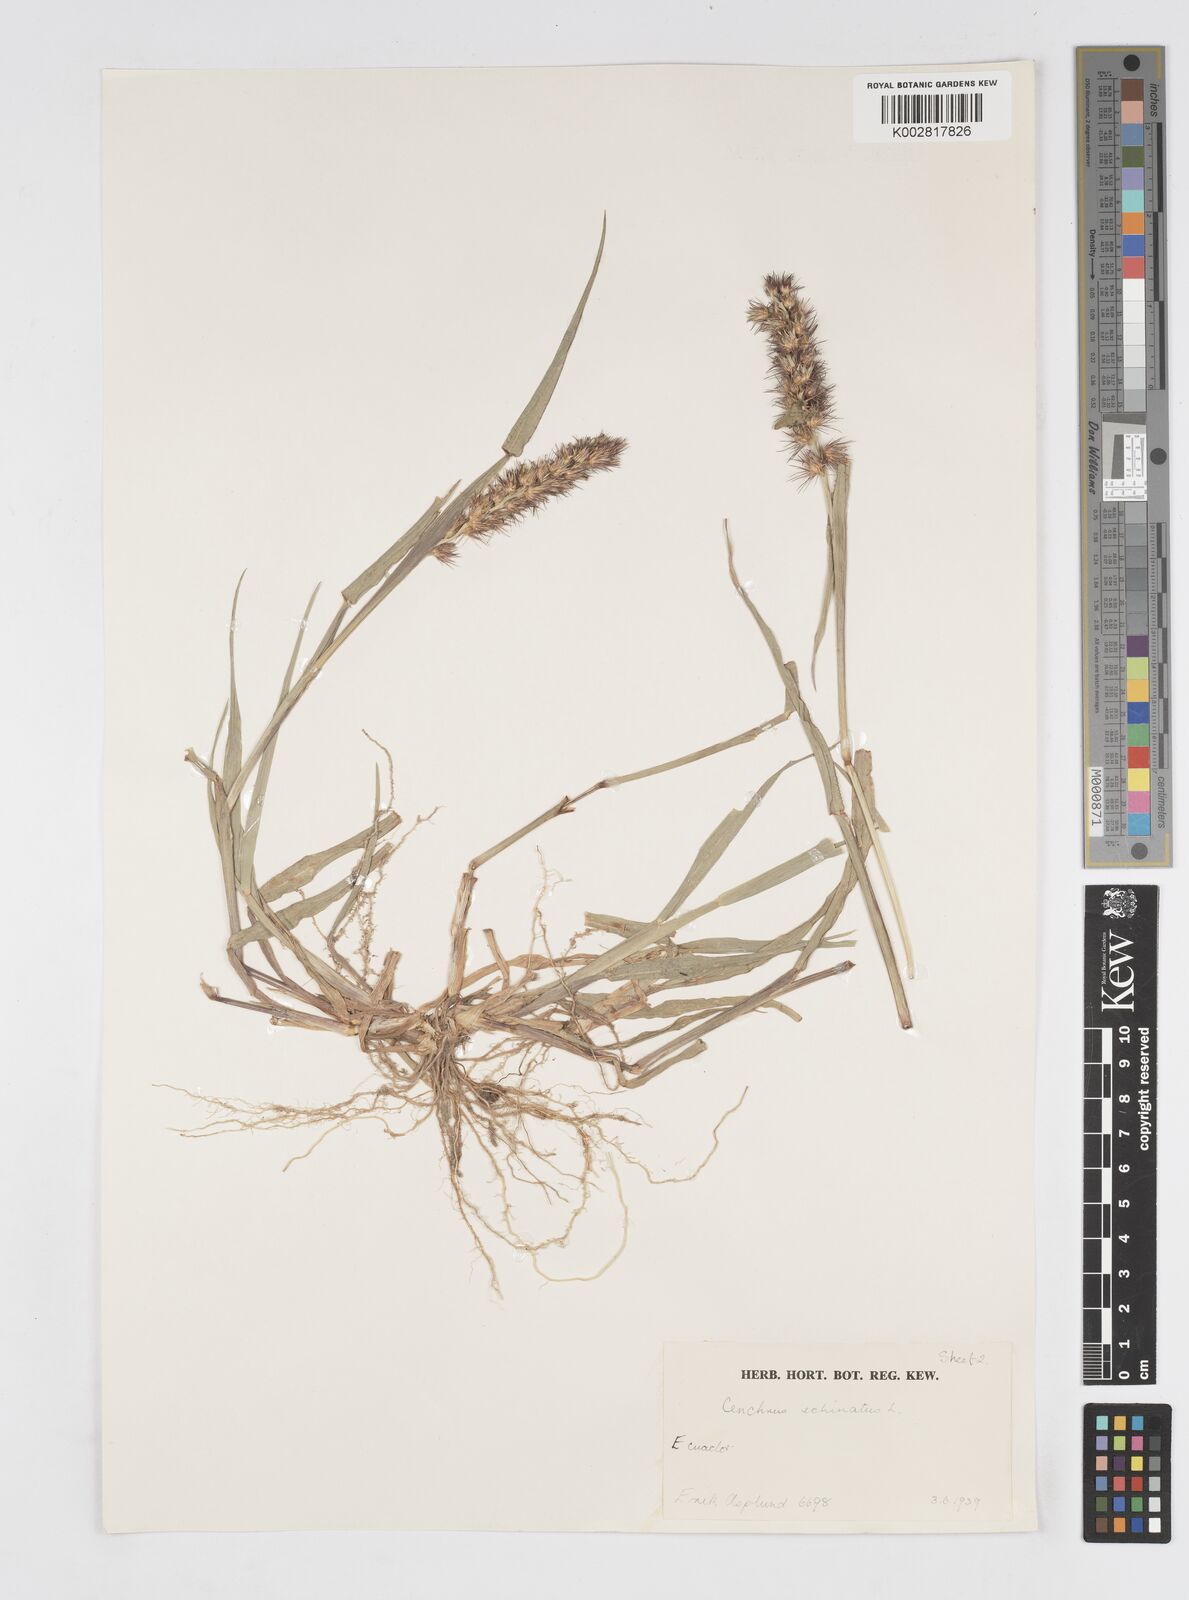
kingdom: Plantae
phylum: Tracheophyta
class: Liliopsida
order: Poales
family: Poaceae
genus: Cenchrus
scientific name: Cenchrus
